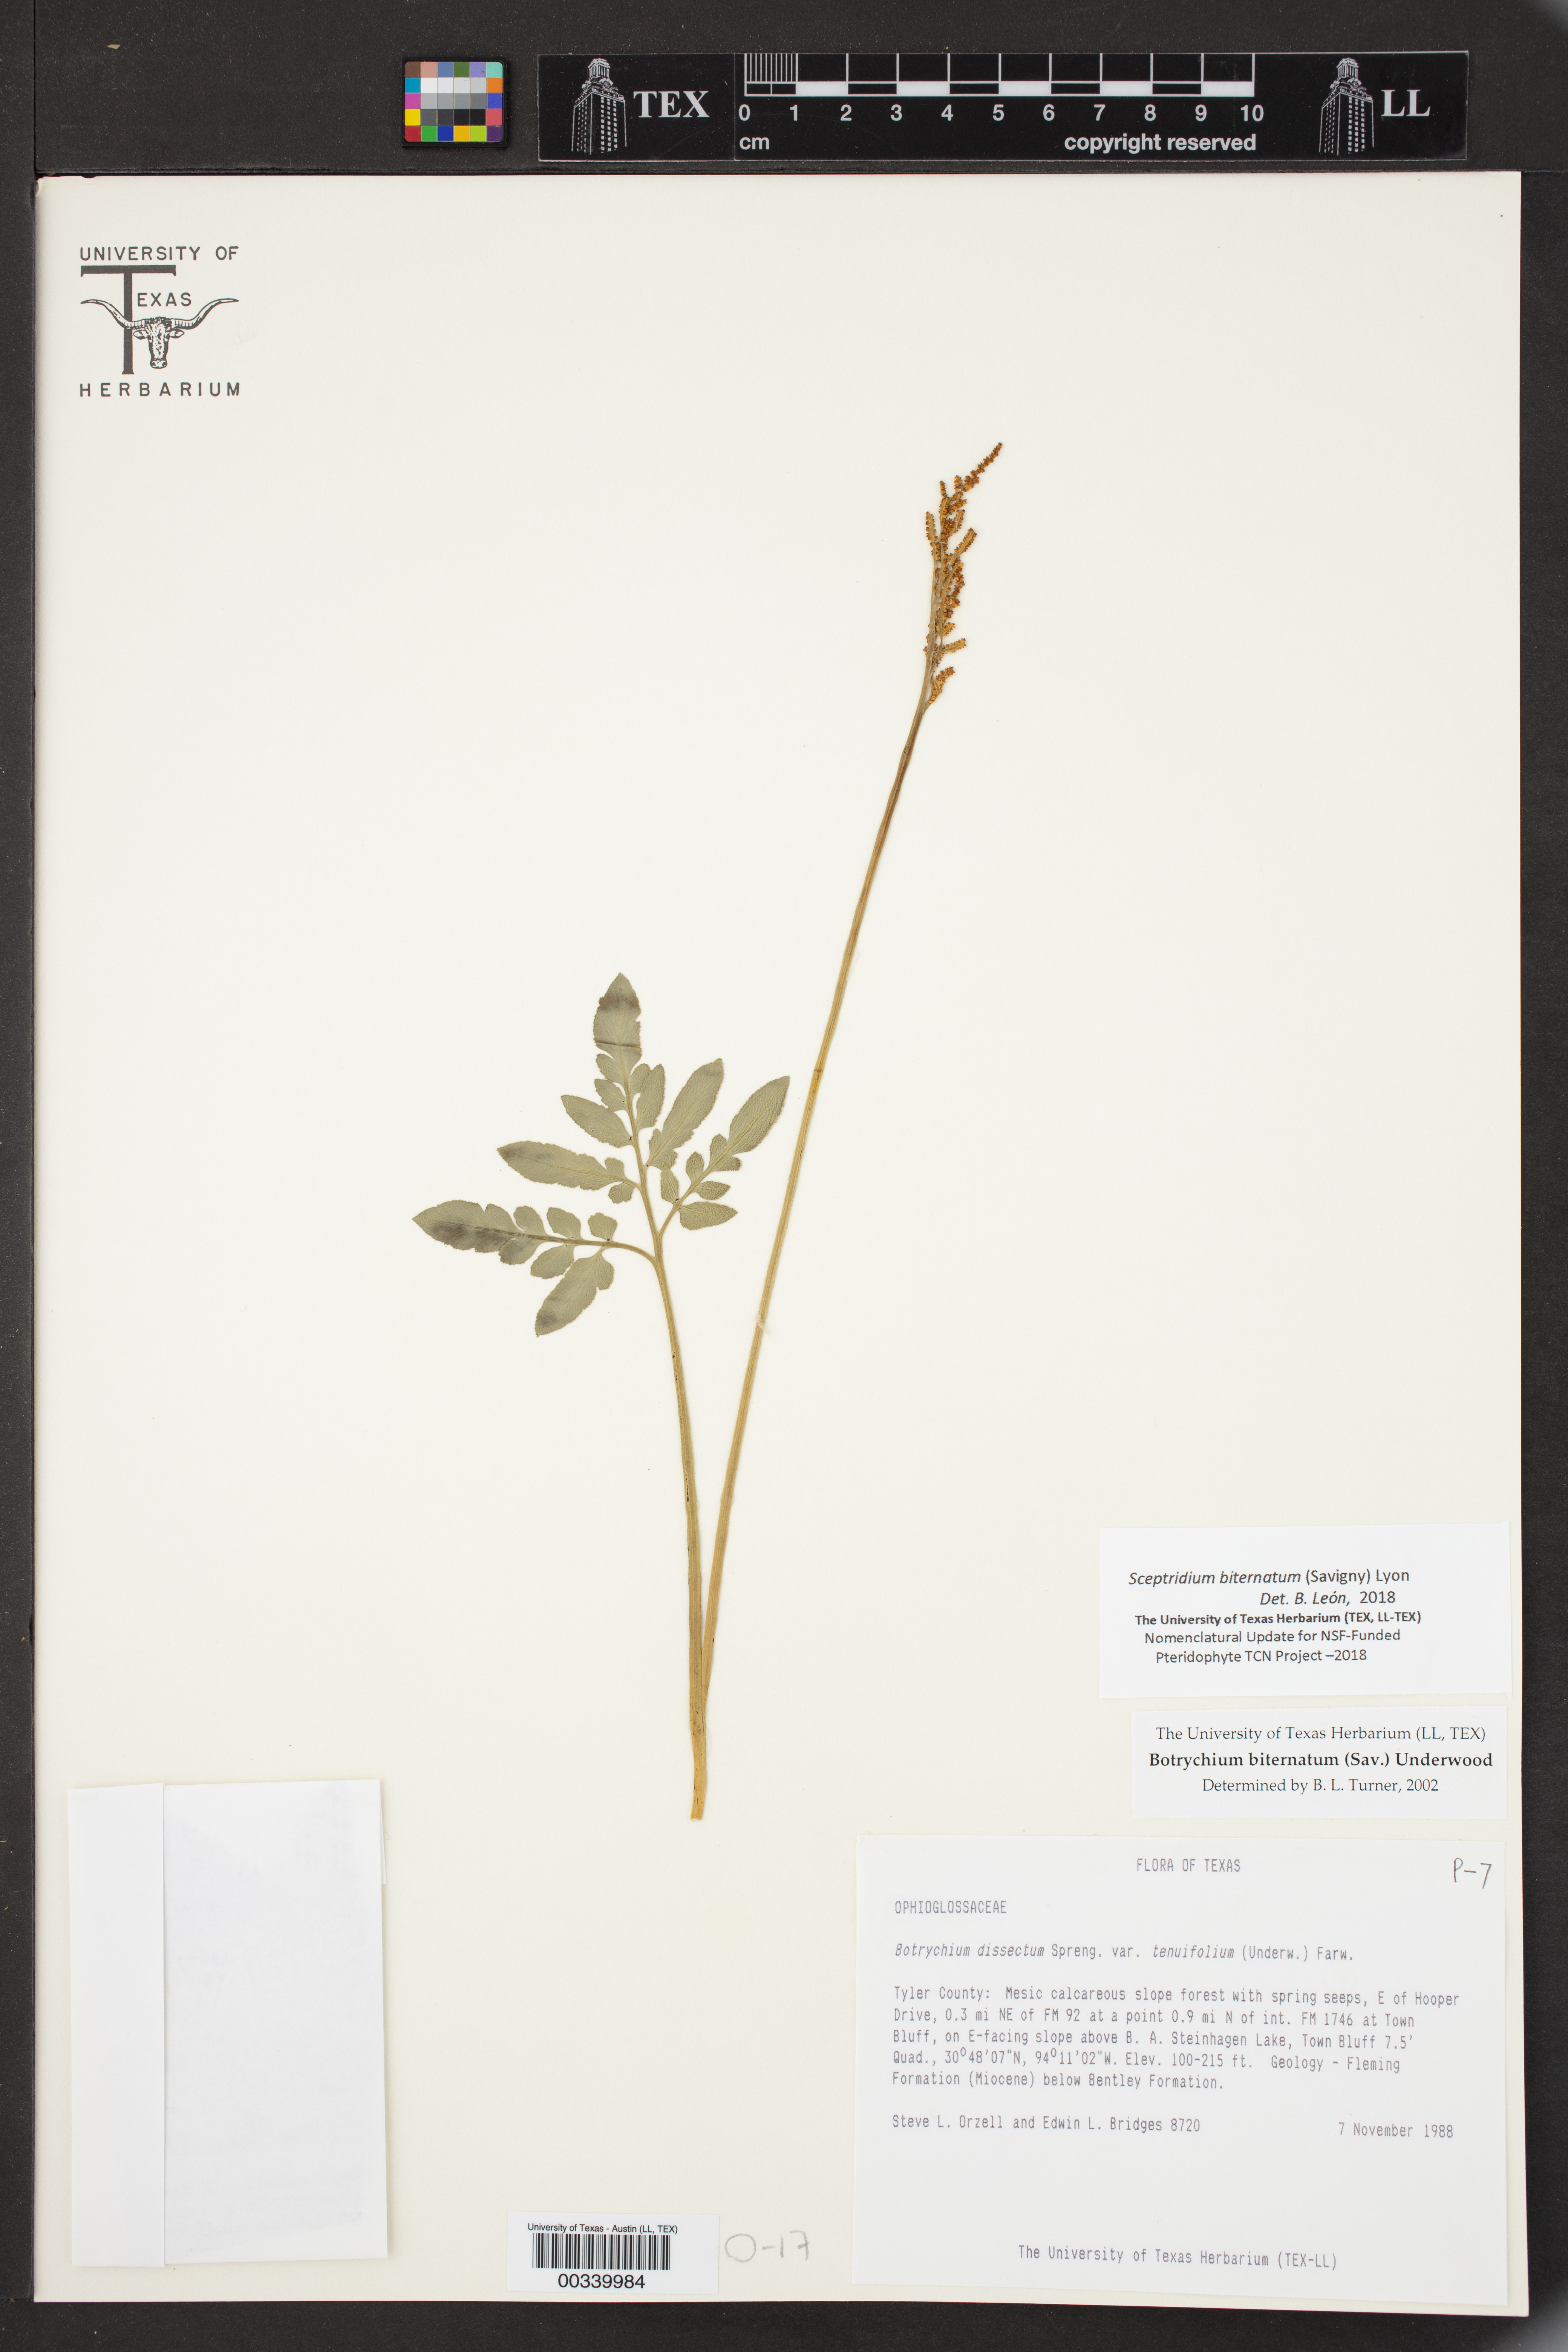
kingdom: Plantae
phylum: Tracheophyta
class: Polypodiopsida
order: Ophioglossales
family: Ophioglossaceae
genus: Sceptridium
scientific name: Sceptridium biternatum
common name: Sparse-lobed grapefern
